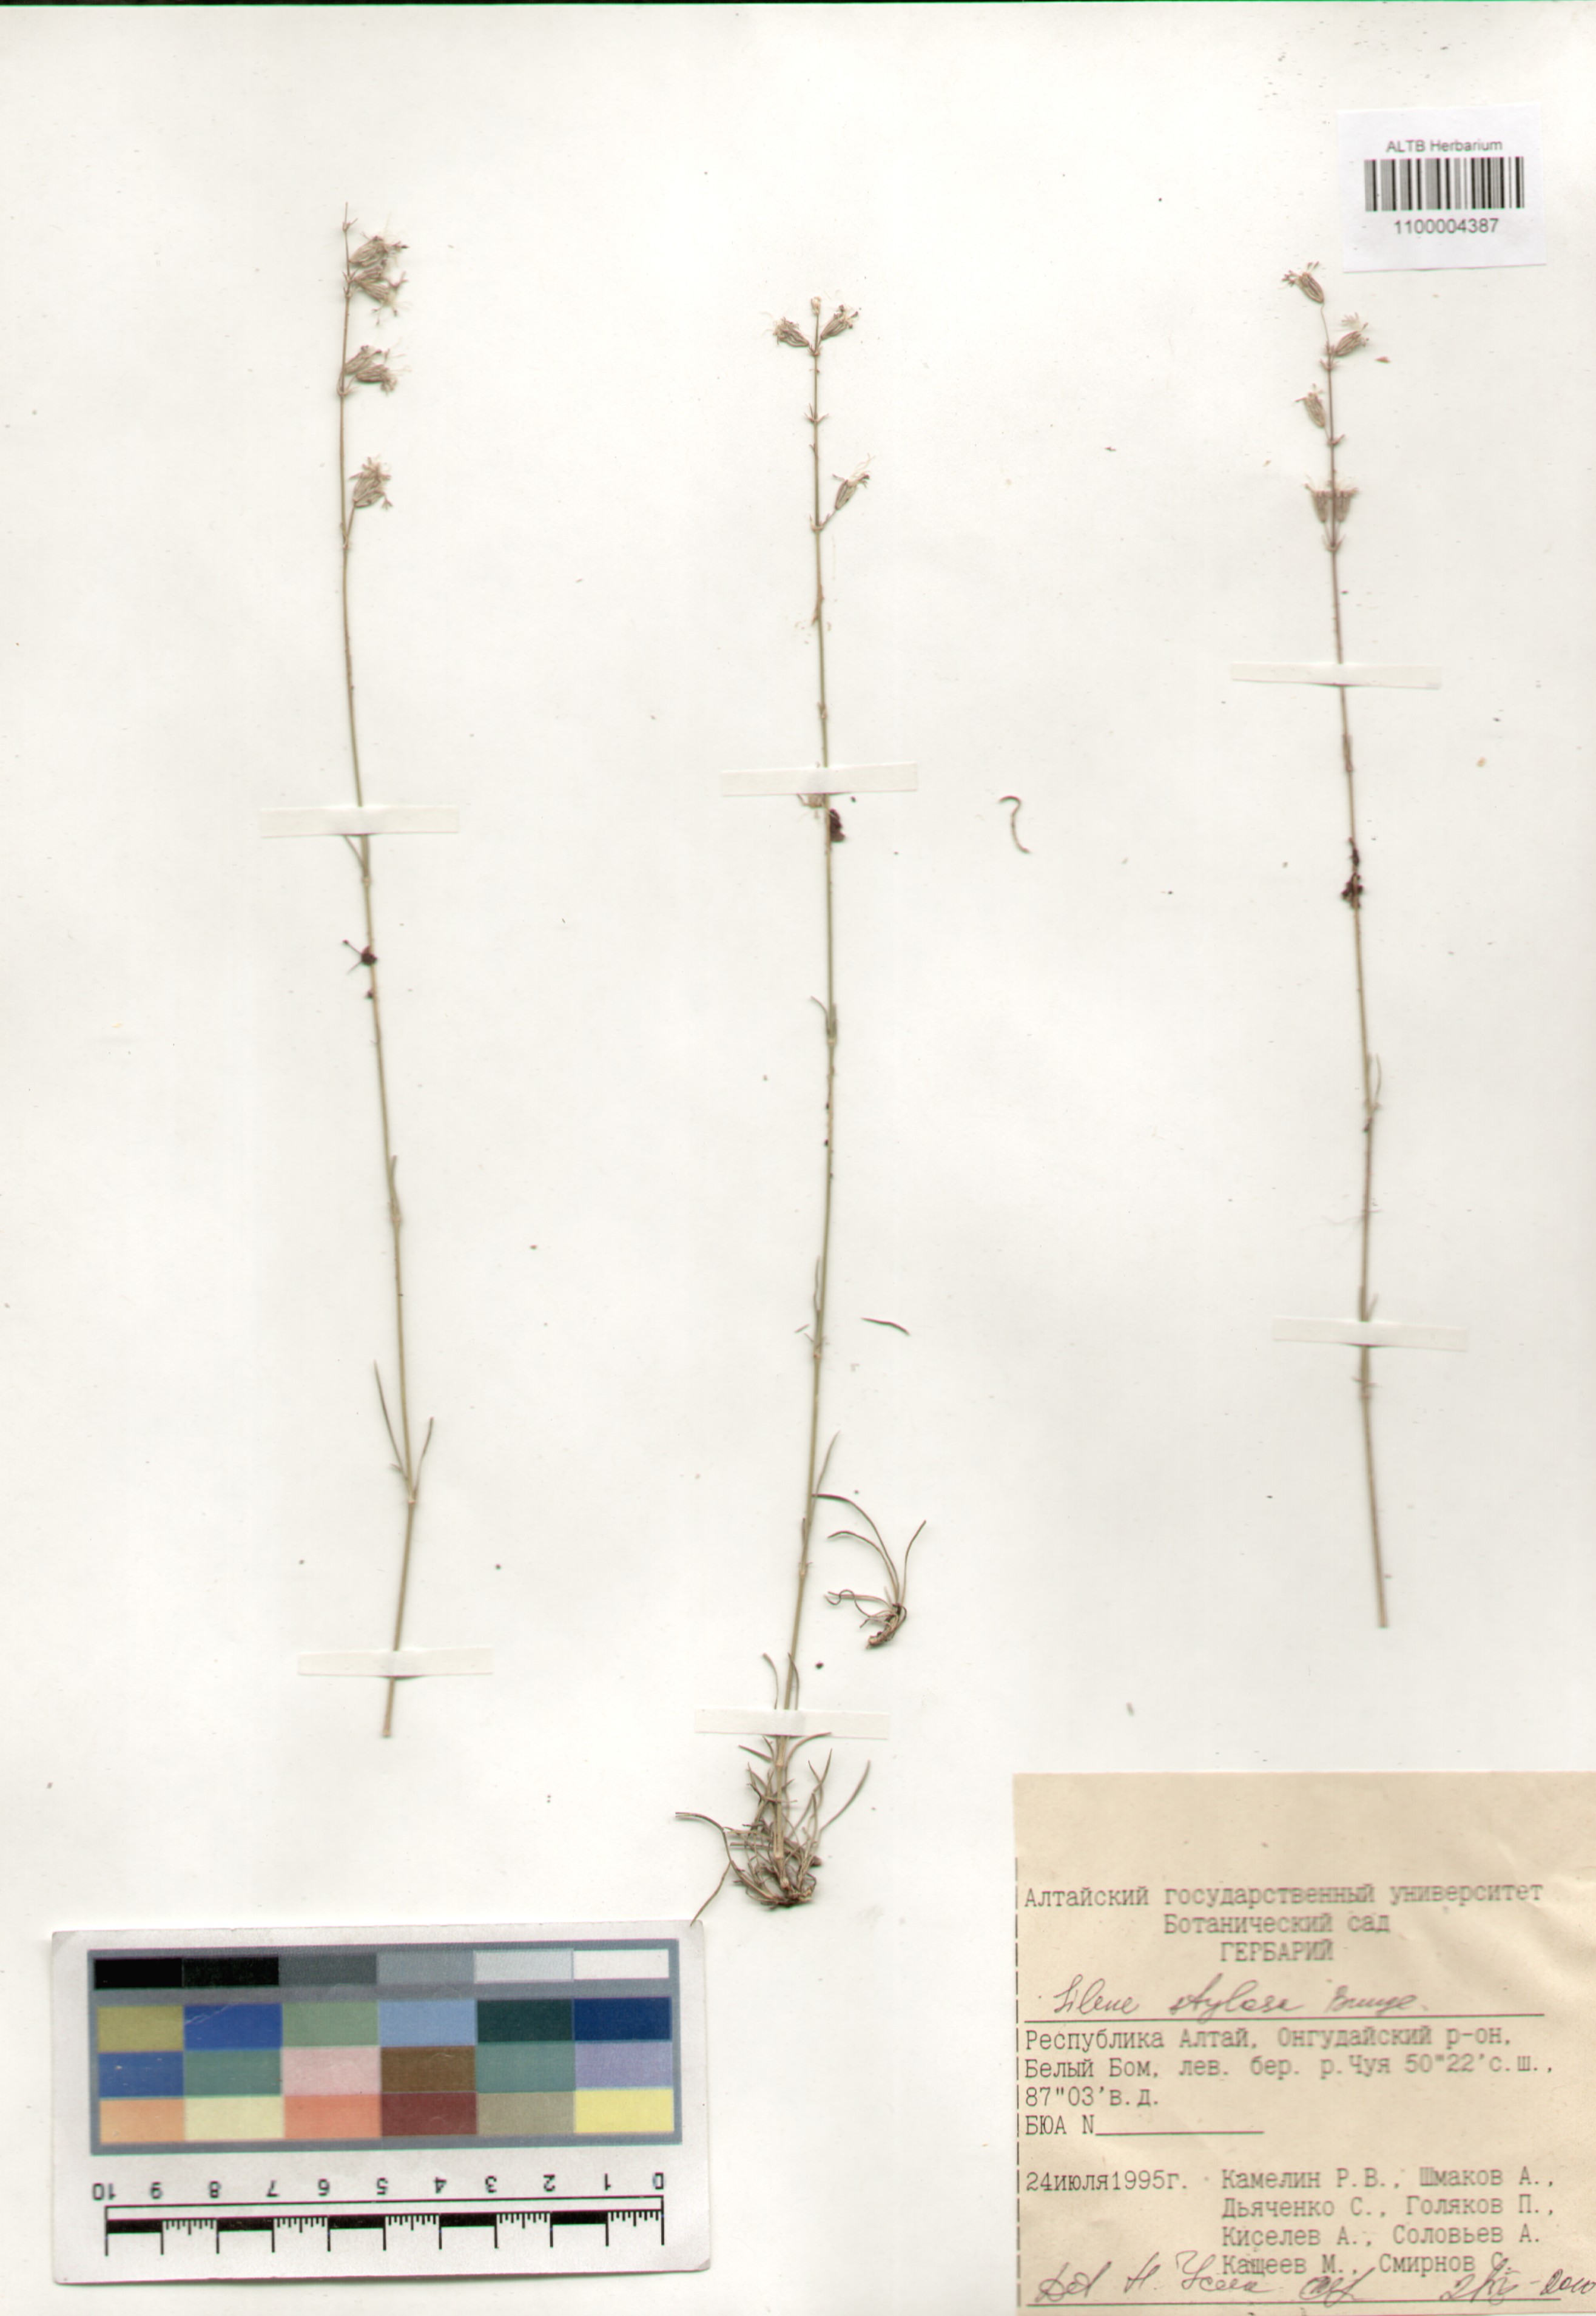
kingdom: Plantae
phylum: Tracheophyta
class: Magnoliopsida
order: Caryophyllales
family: Caryophyllaceae
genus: Silene
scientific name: Silene graminifolia
